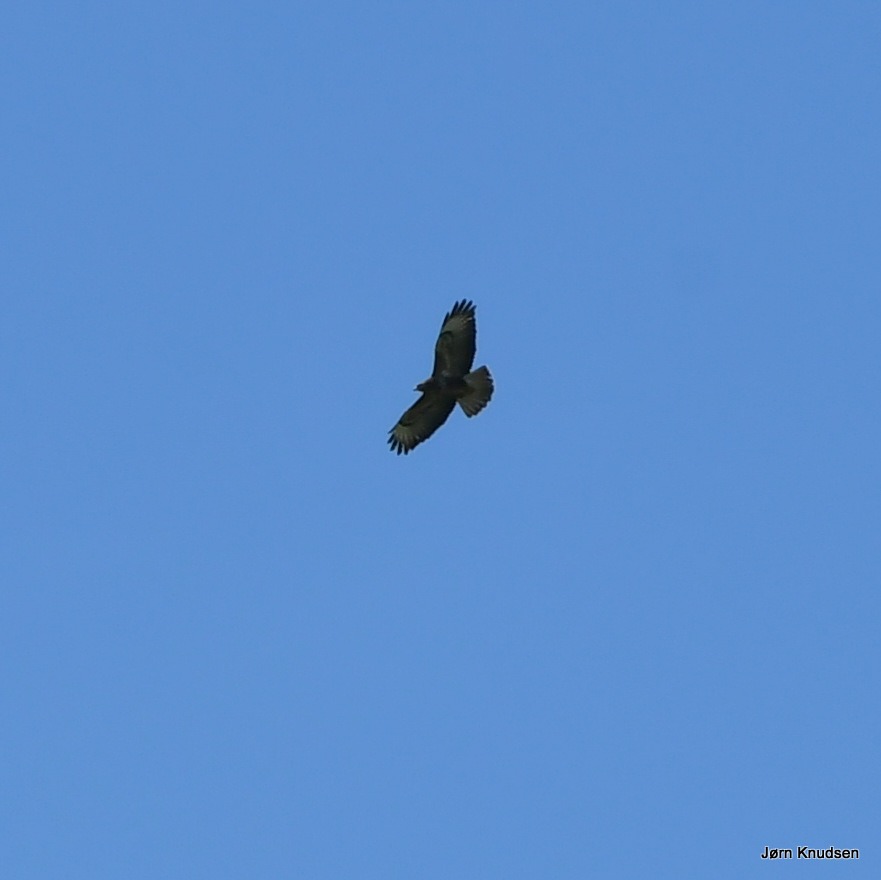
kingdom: Animalia
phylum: Chordata
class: Aves
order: Accipitriformes
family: Accipitridae
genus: Buteo
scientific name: Buteo buteo
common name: Musvåge
